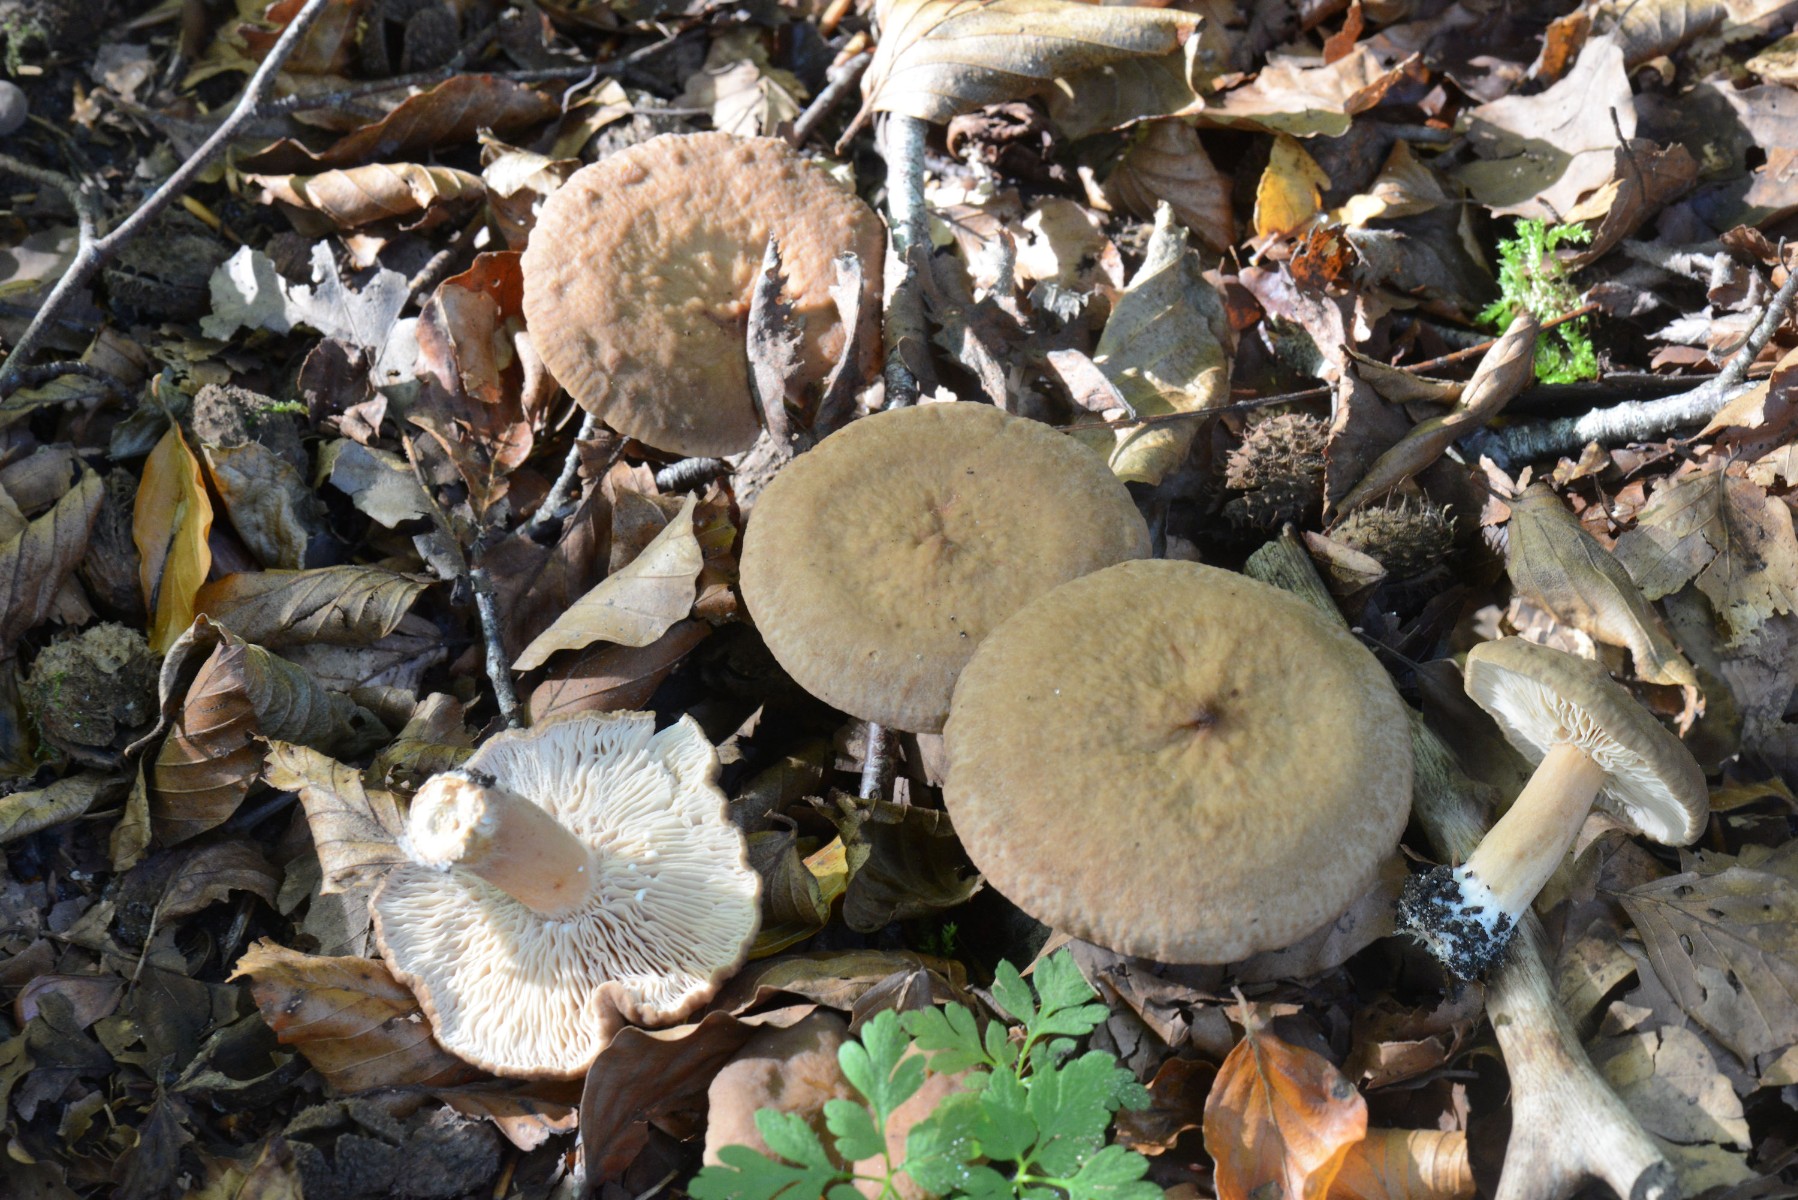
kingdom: Fungi
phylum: Basidiomycota
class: Agaricomycetes
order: Russulales
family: Russulaceae
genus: Lactarius
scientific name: Lactarius subdulcis
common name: sødlig mælkehat
